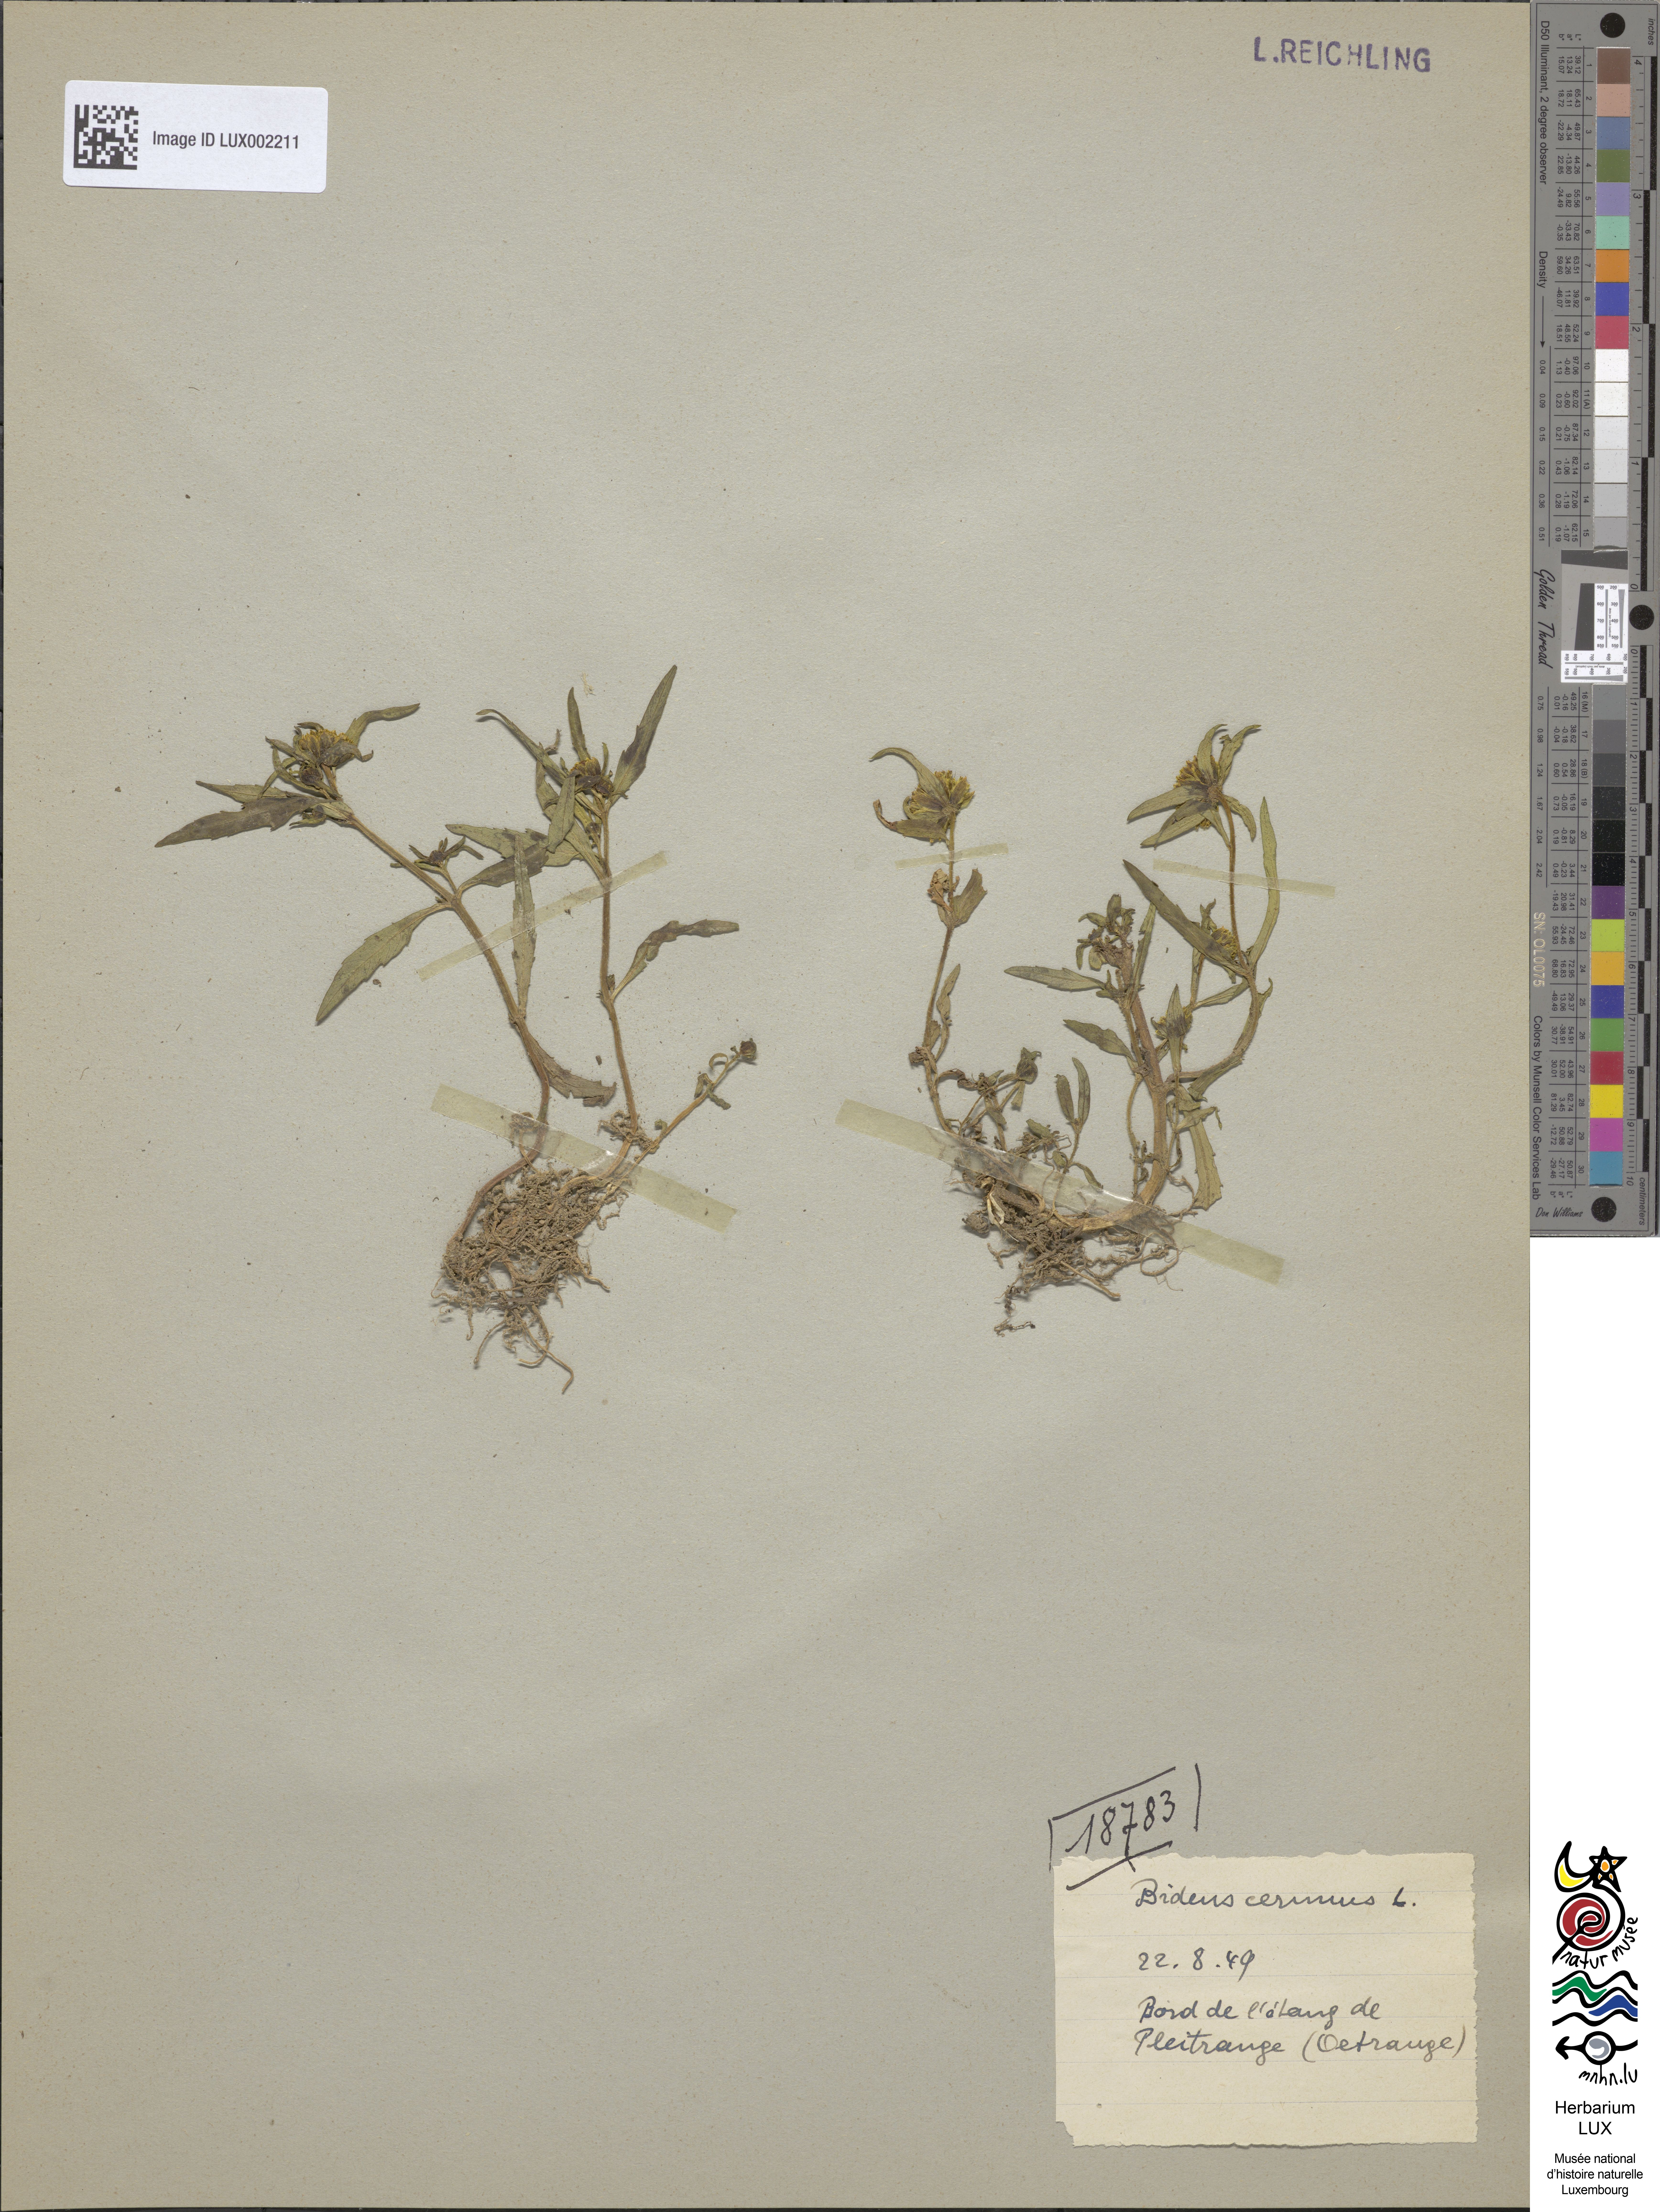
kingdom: Plantae
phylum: Tracheophyta
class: Magnoliopsida
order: Asterales
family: Asteraceae
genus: Bidens
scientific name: Bidens cernua
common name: Nodding bur-marigold
